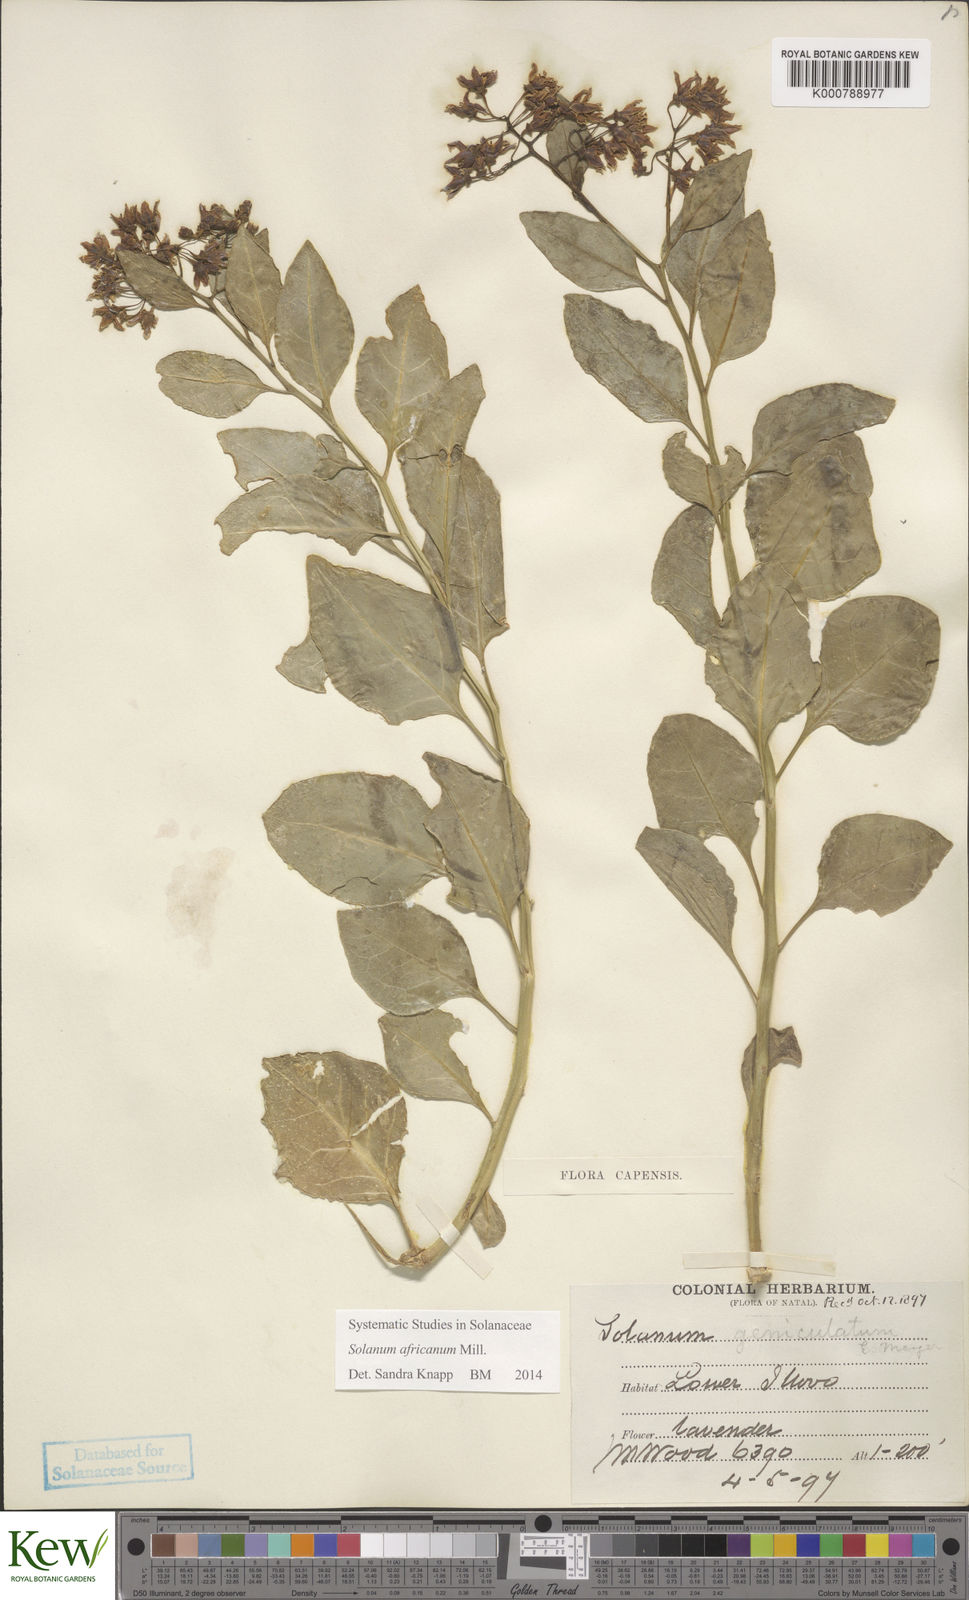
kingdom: Plantae
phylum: Tracheophyta
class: Magnoliopsida
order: Solanales
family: Solanaceae
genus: Solanum
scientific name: Solanum africanum
